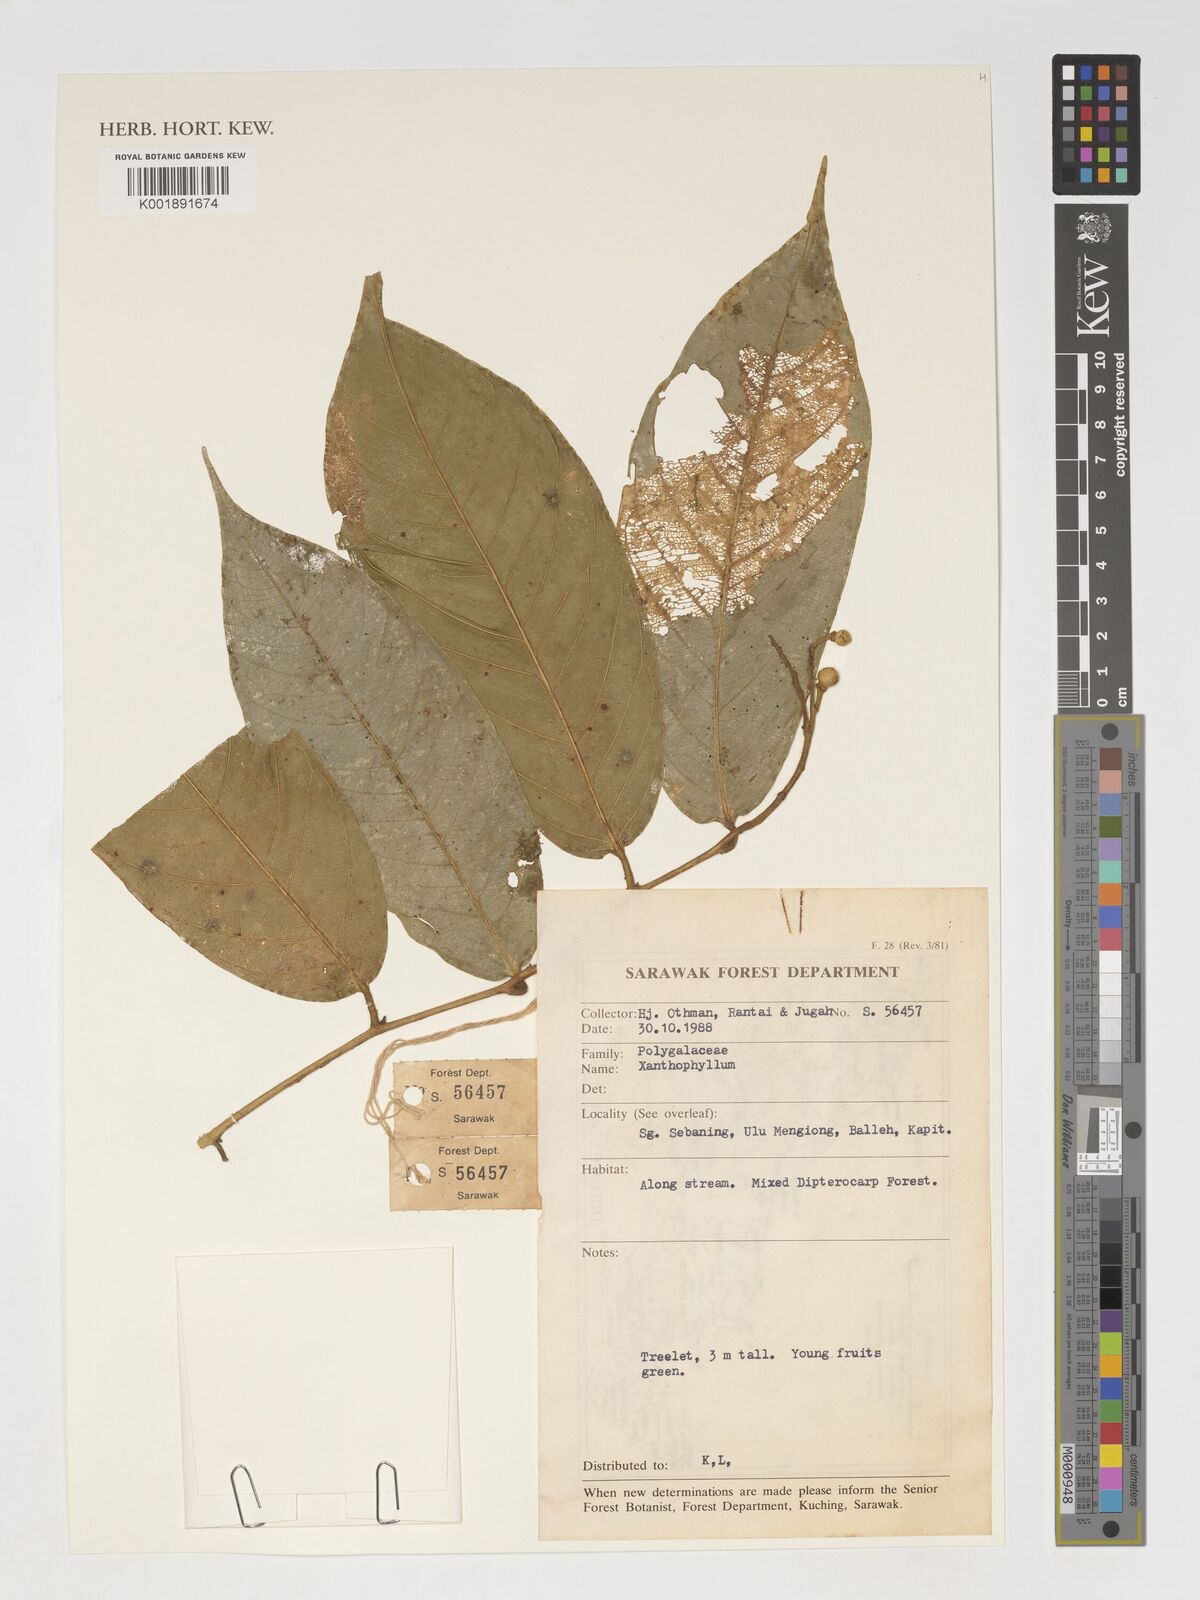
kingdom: Plantae
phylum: Tracheophyta
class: Magnoliopsida
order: Fabales
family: Polygalaceae
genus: Xanthophyllum
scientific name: Xanthophyllum
